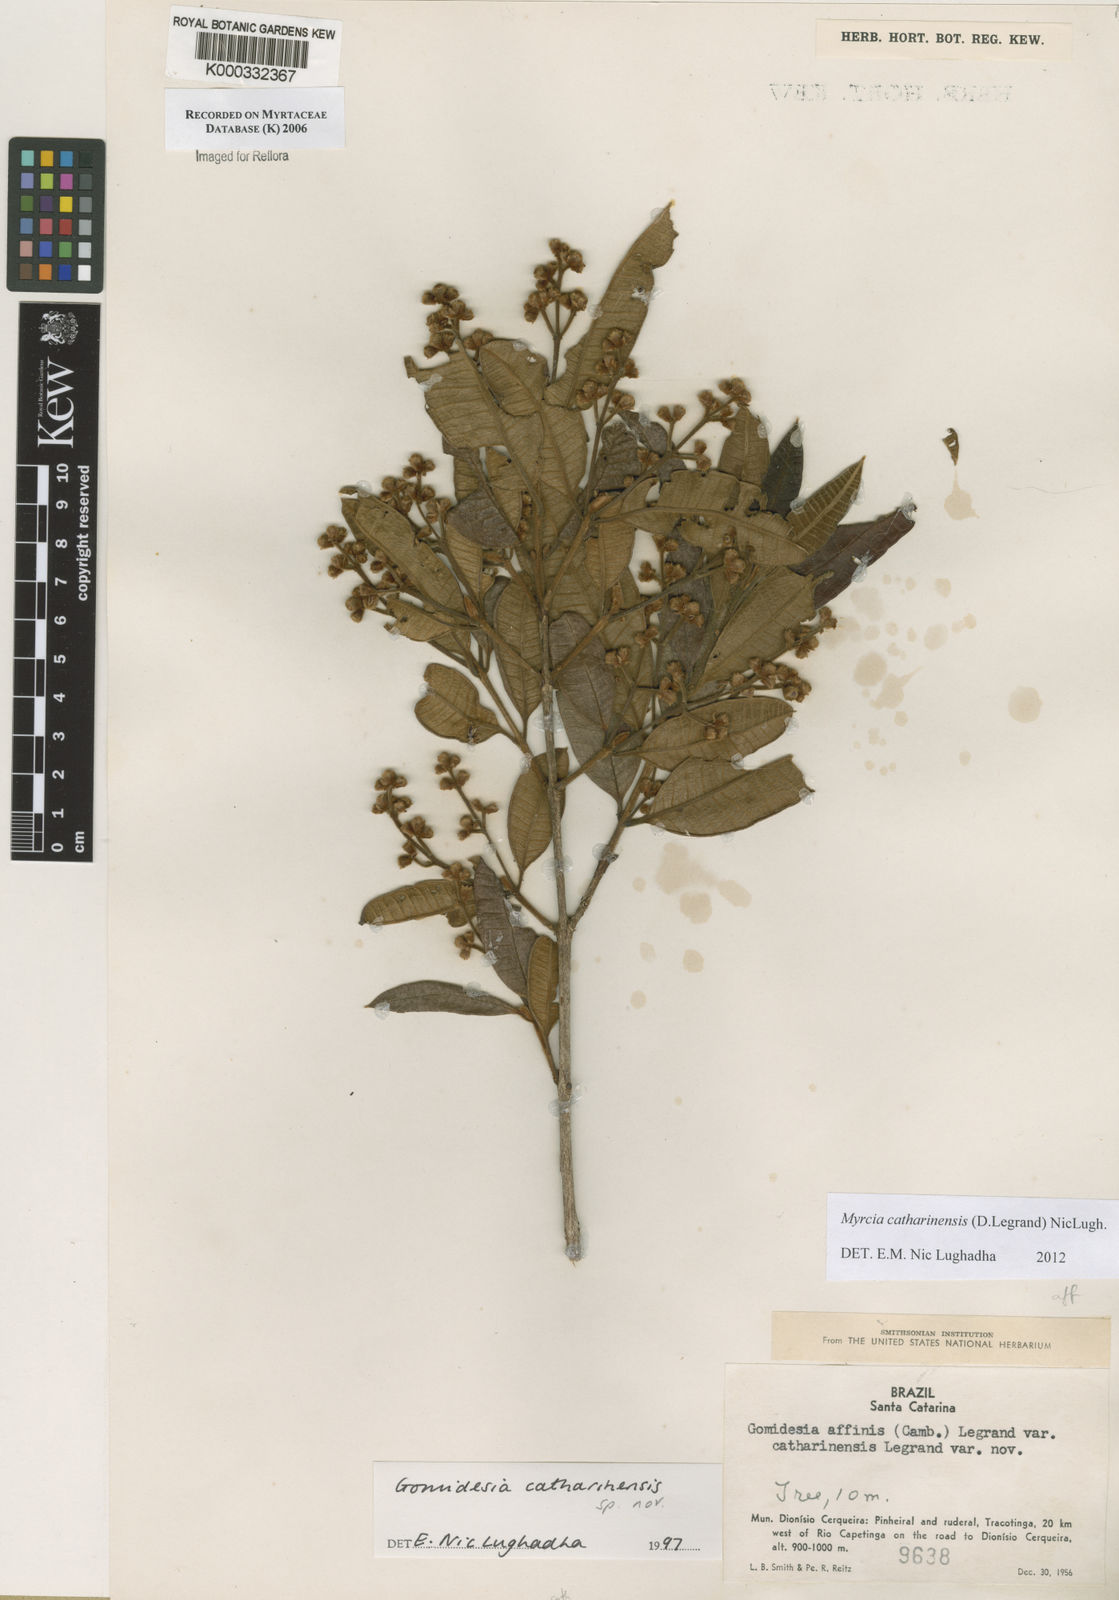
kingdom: Plantae
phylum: Tracheophyta
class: Magnoliopsida
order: Myrtales
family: Myrtaceae
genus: Myrcia
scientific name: Myrcia catharinensis
